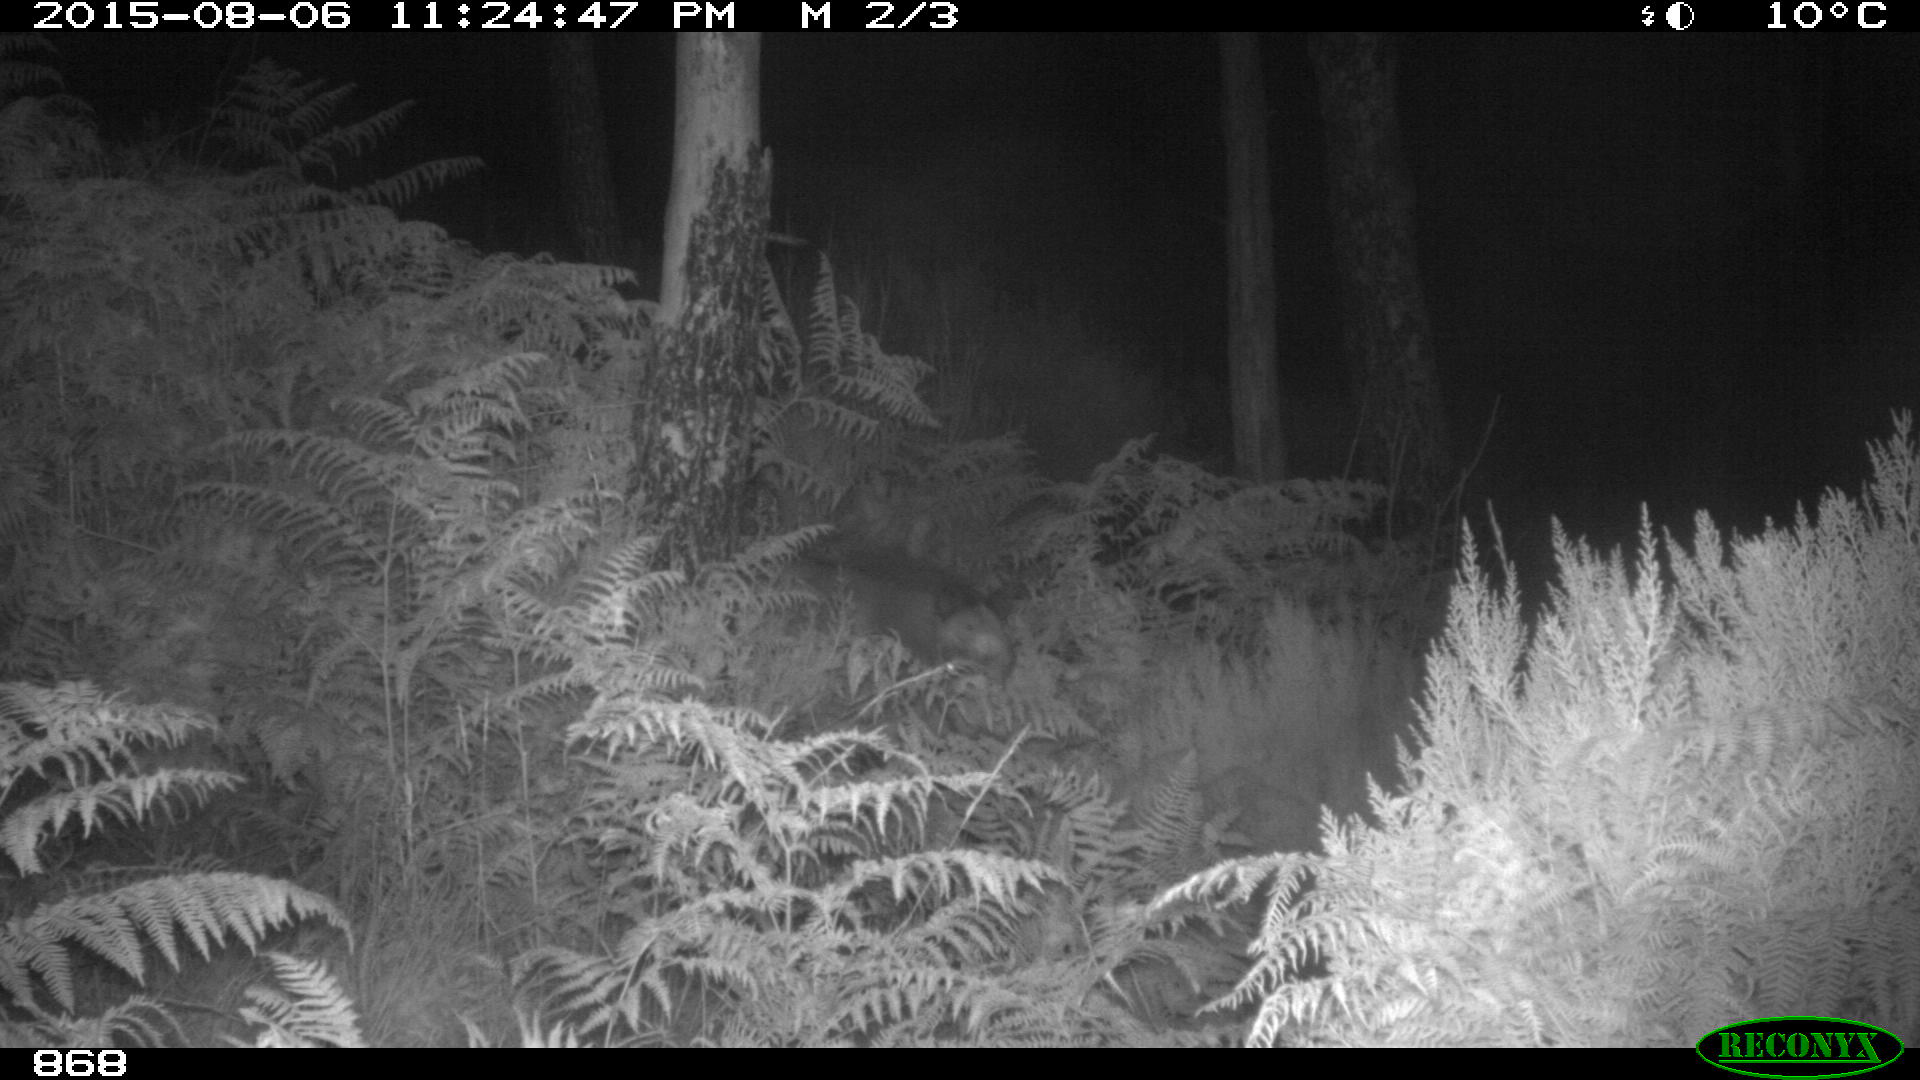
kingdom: Animalia
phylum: Chordata
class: Mammalia
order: Perissodactyla
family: Equidae
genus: Equus
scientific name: Equus caballus
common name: Horse
